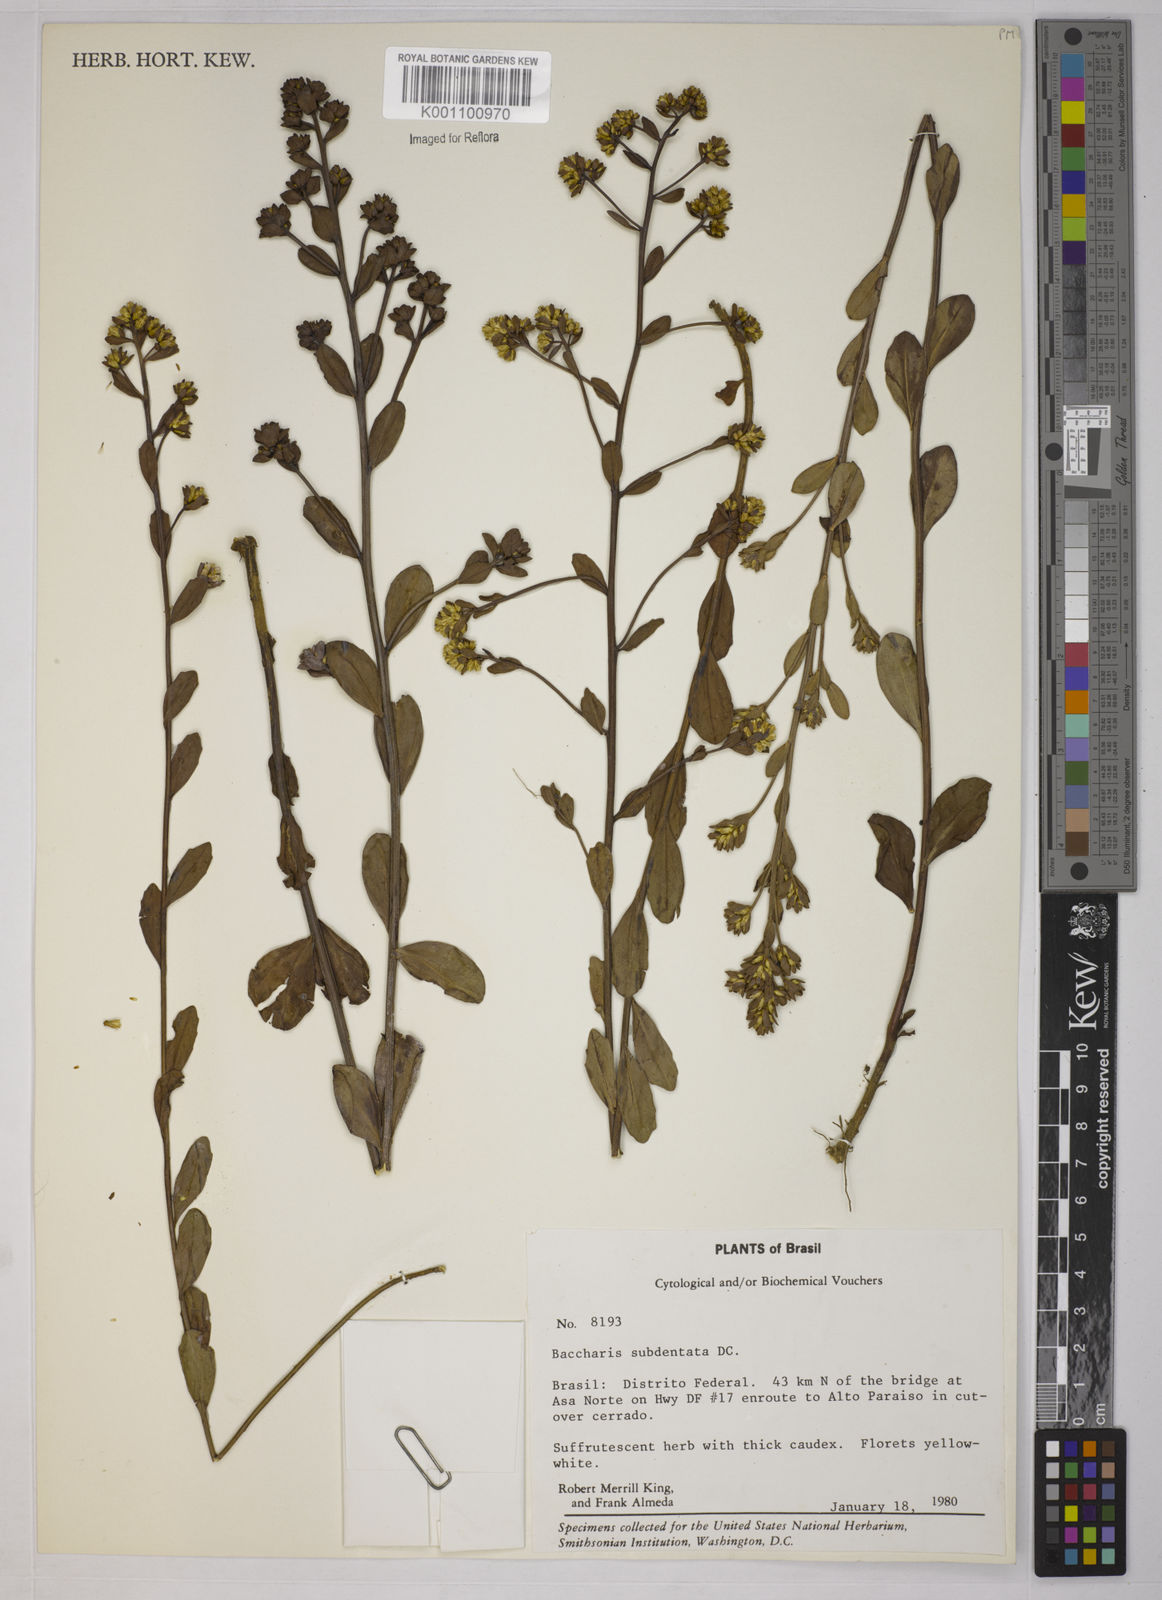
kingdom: Plantae
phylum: Tracheophyta
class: Magnoliopsida
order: Asterales
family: Asteraceae
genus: Baccharis
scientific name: Baccharis subdentata
